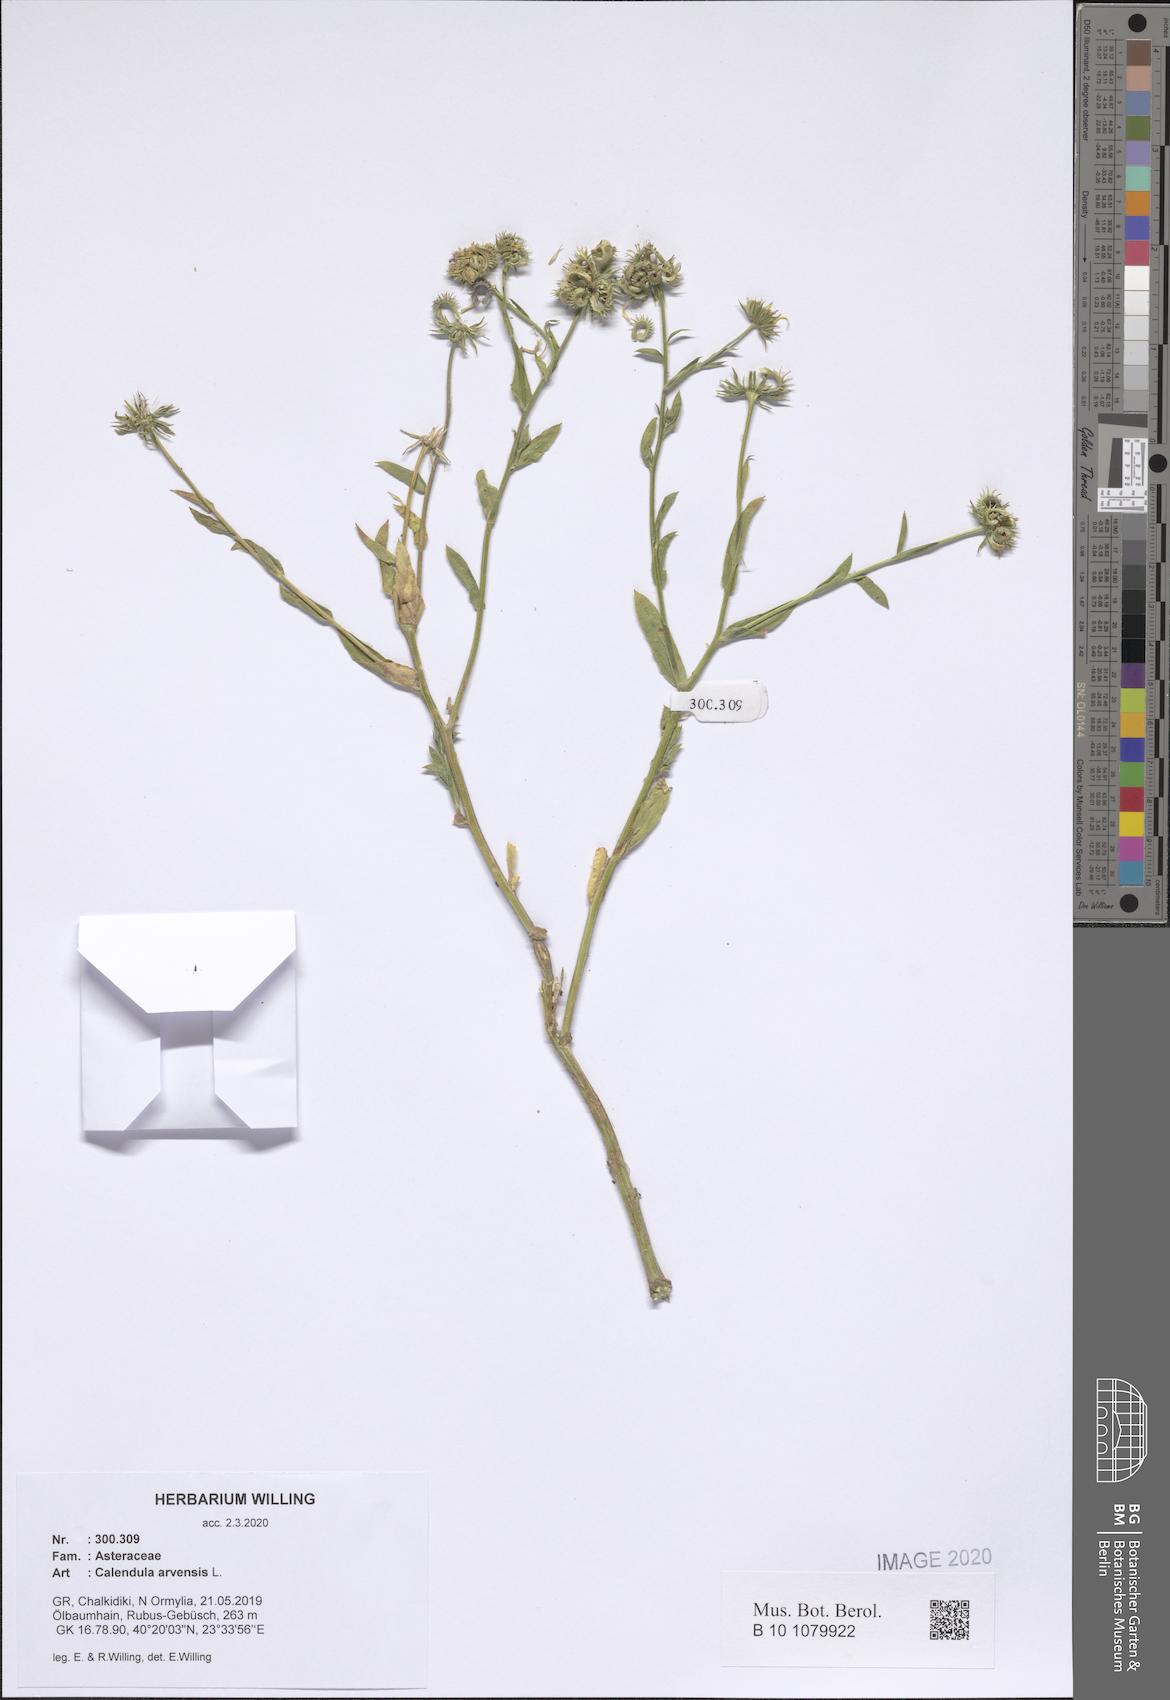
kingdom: Plantae
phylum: Tracheophyta
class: Magnoliopsida
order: Asterales
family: Asteraceae
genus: Calendula
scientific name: Calendula arvensis
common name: Field marigold
